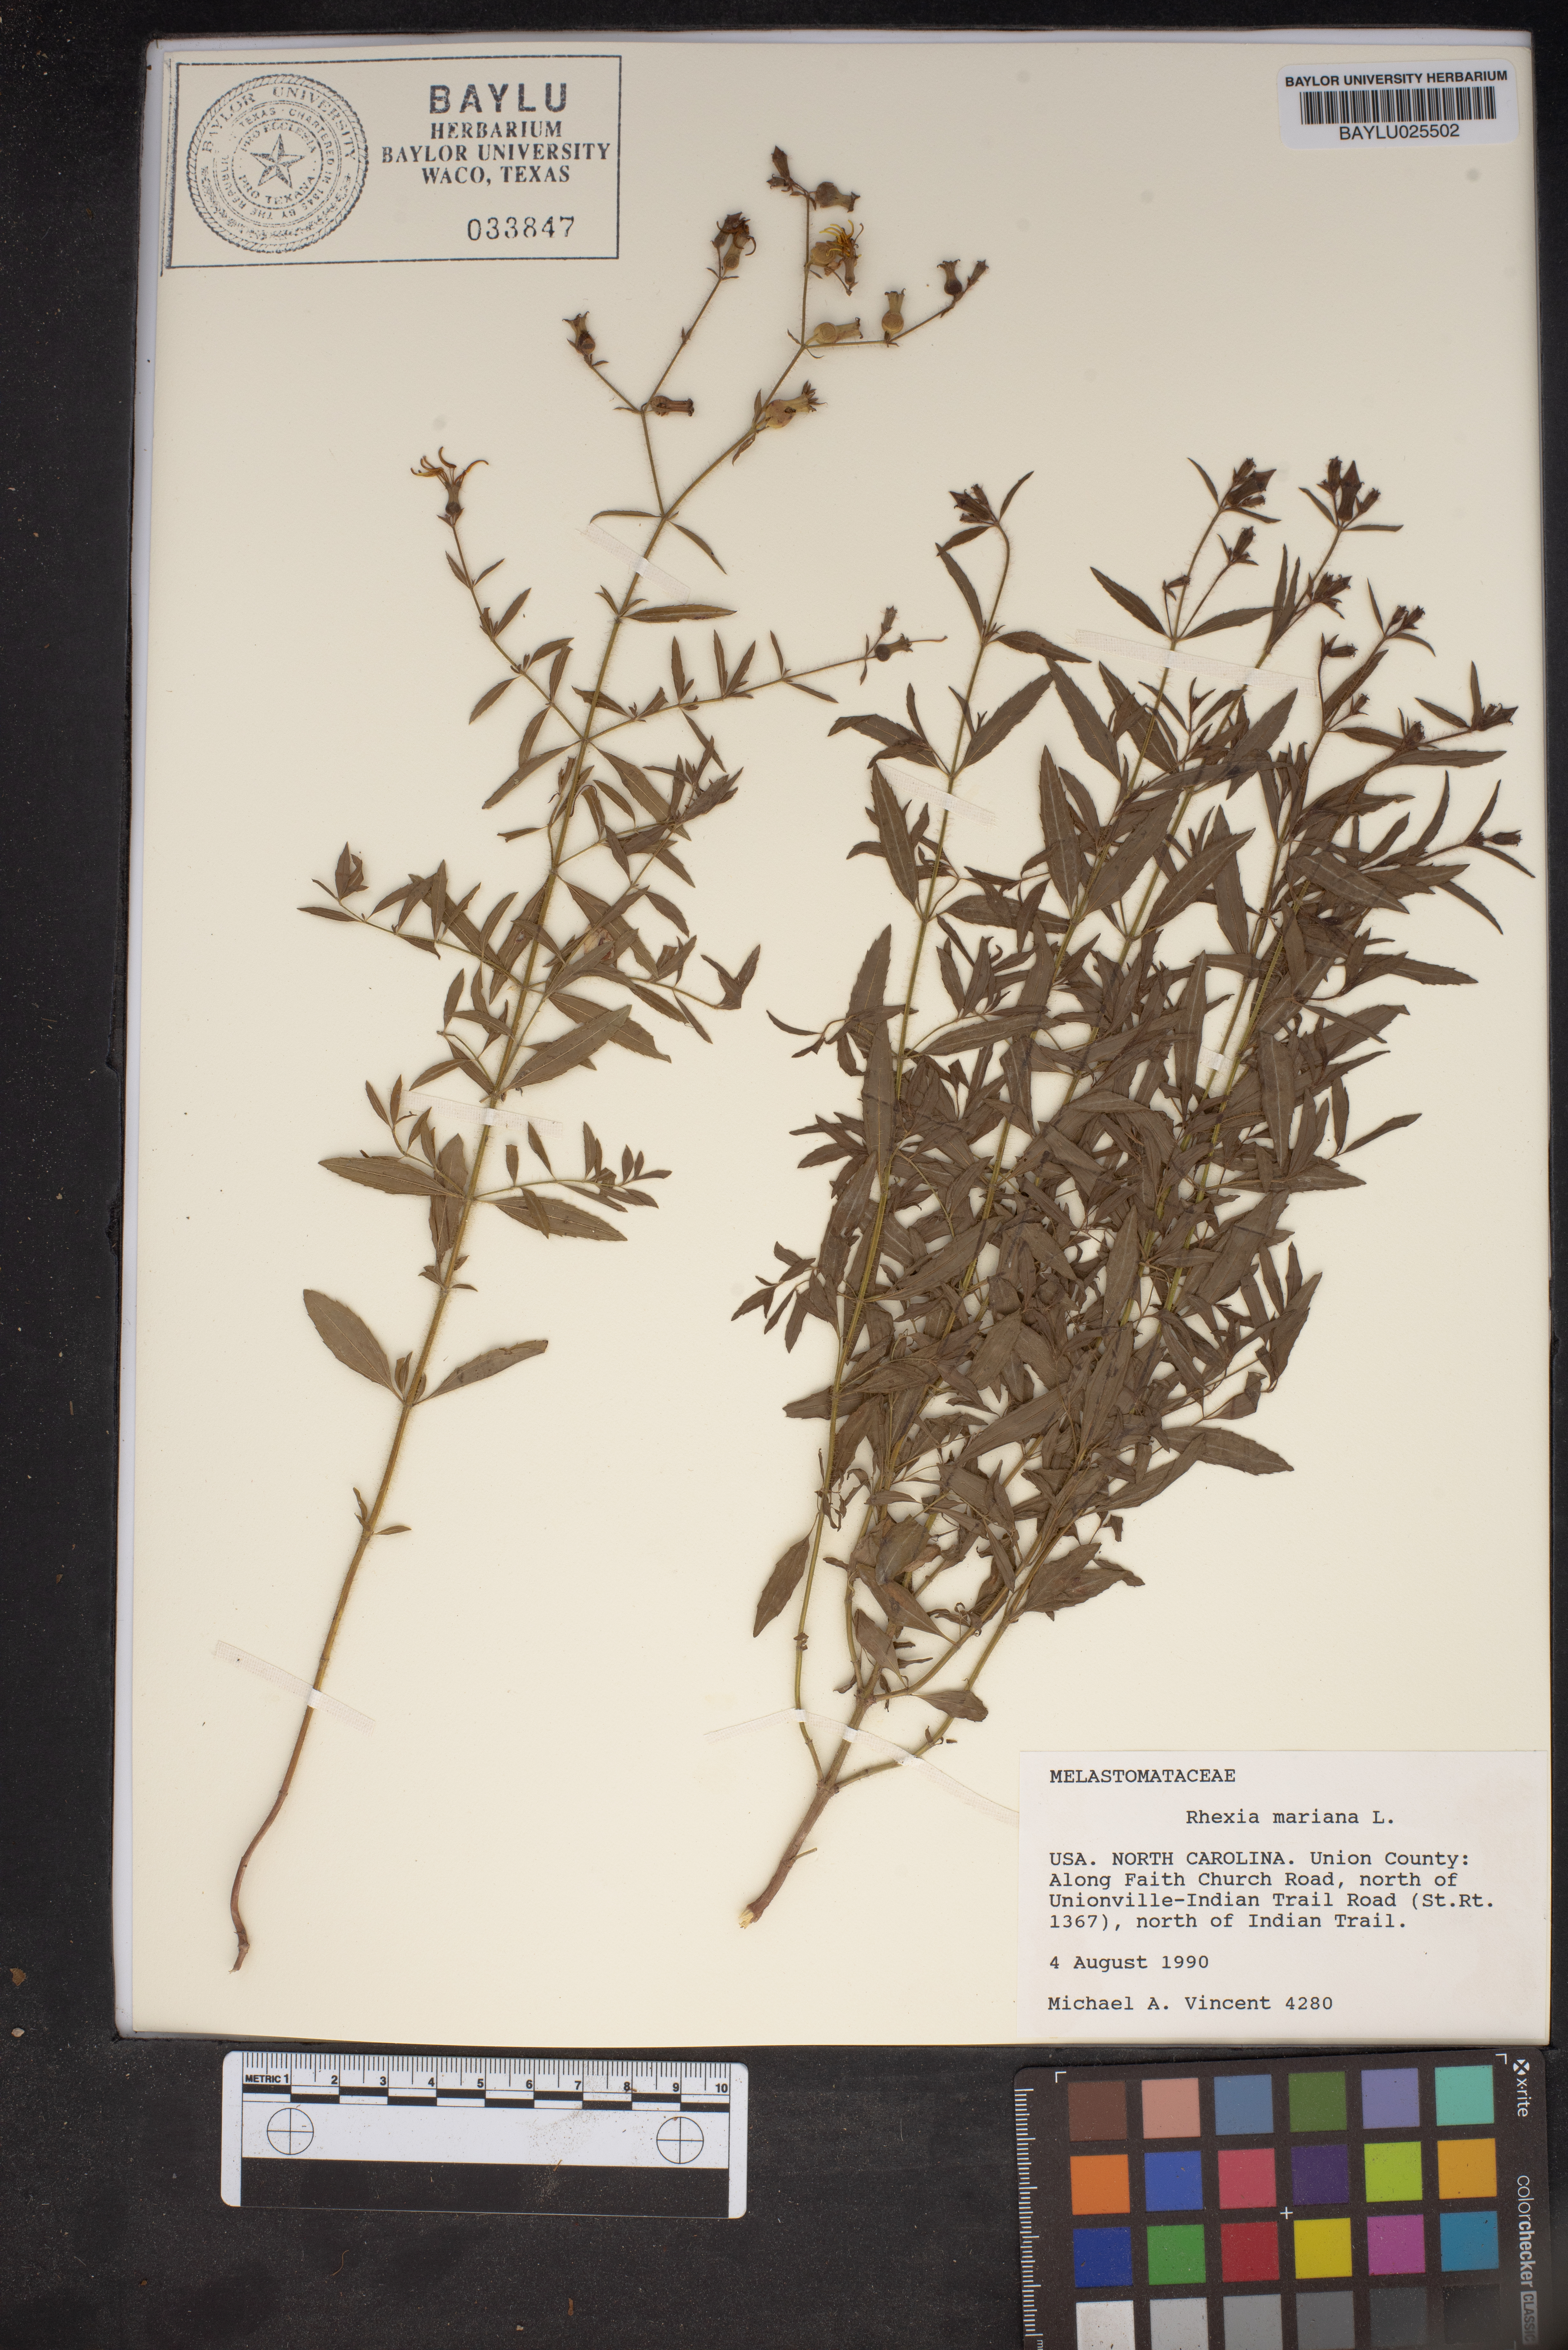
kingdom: Plantae
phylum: Tracheophyta
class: Magnoliopsida
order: Myrtales
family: Melastomataceae
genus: Rhexia
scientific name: Rhexia mariana
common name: Dull meadow-pitcher
